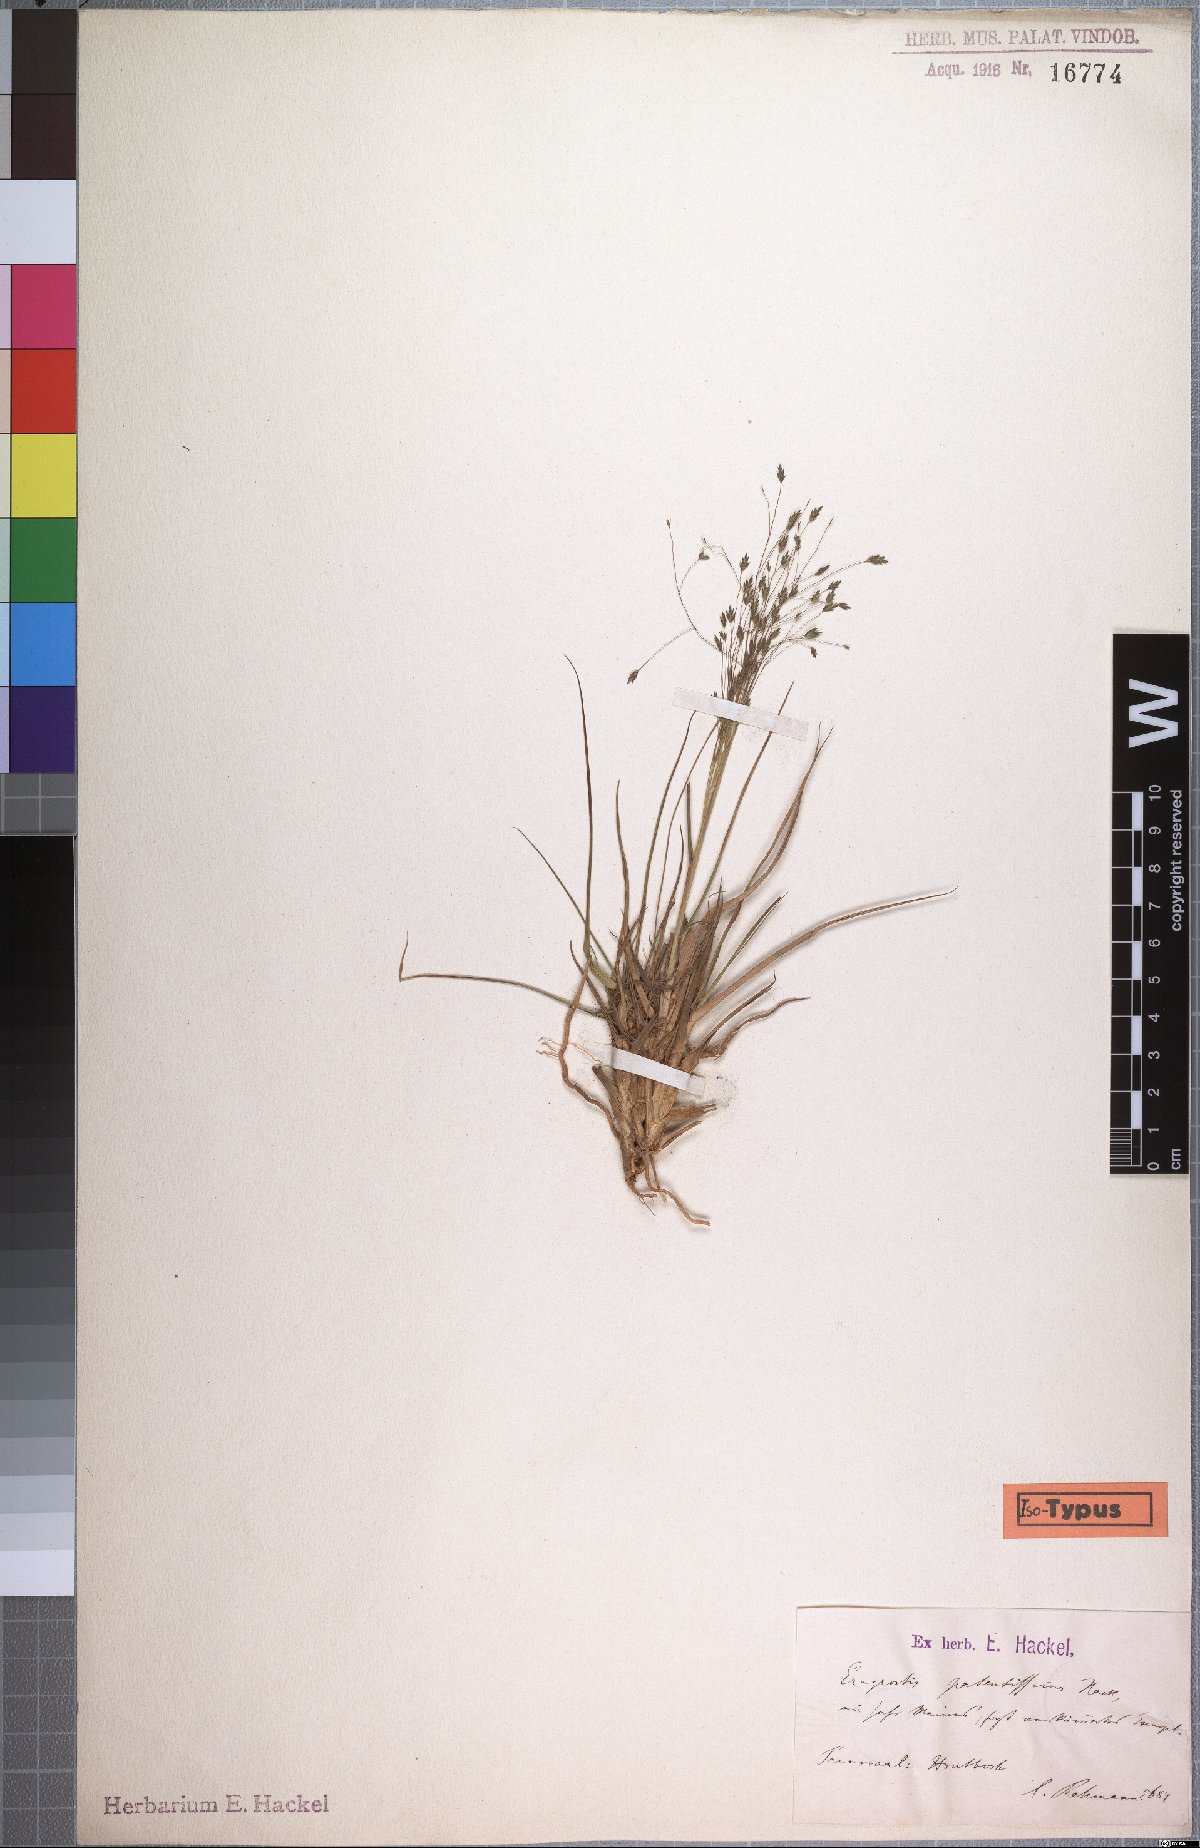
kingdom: Plantae
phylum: Tracheophyta
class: Liliopsida
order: Poales
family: Poaceae
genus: Eragrostis
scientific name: Eragrostis patentissima
